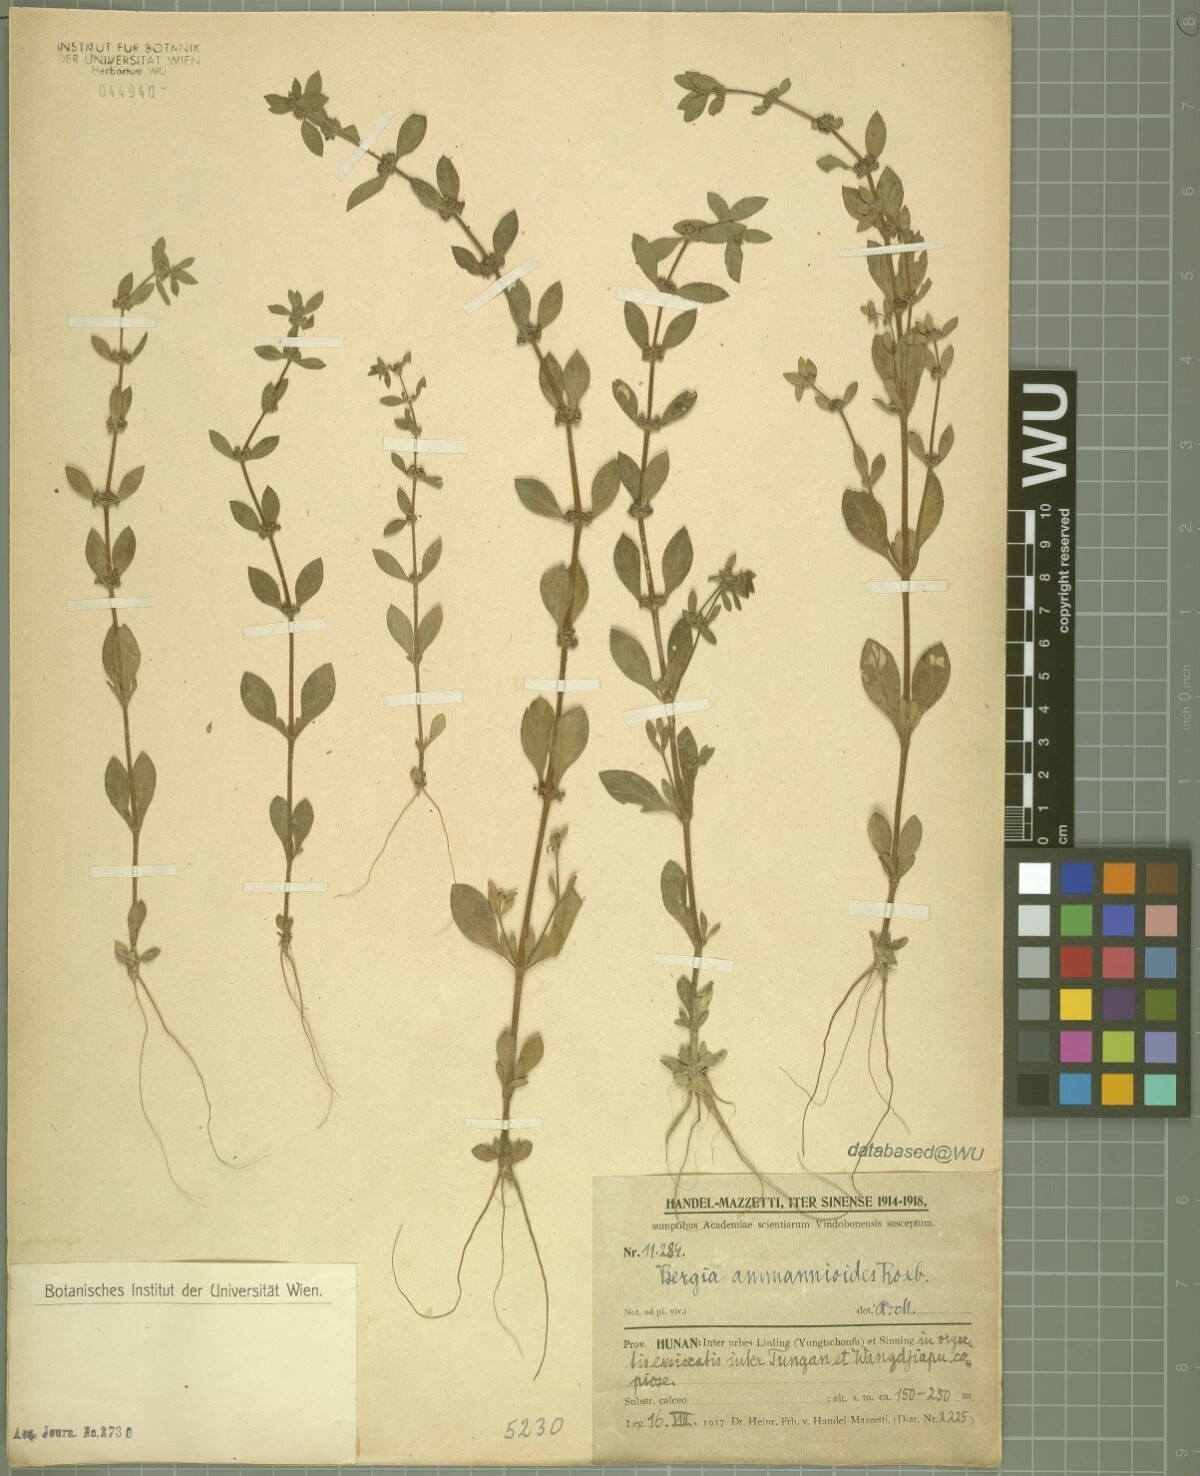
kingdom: Plantae
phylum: Tracheophyta
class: Magnoliopsida
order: Malpighiales
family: Elatinaceae
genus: Bergia
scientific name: Bergia ammannioides
